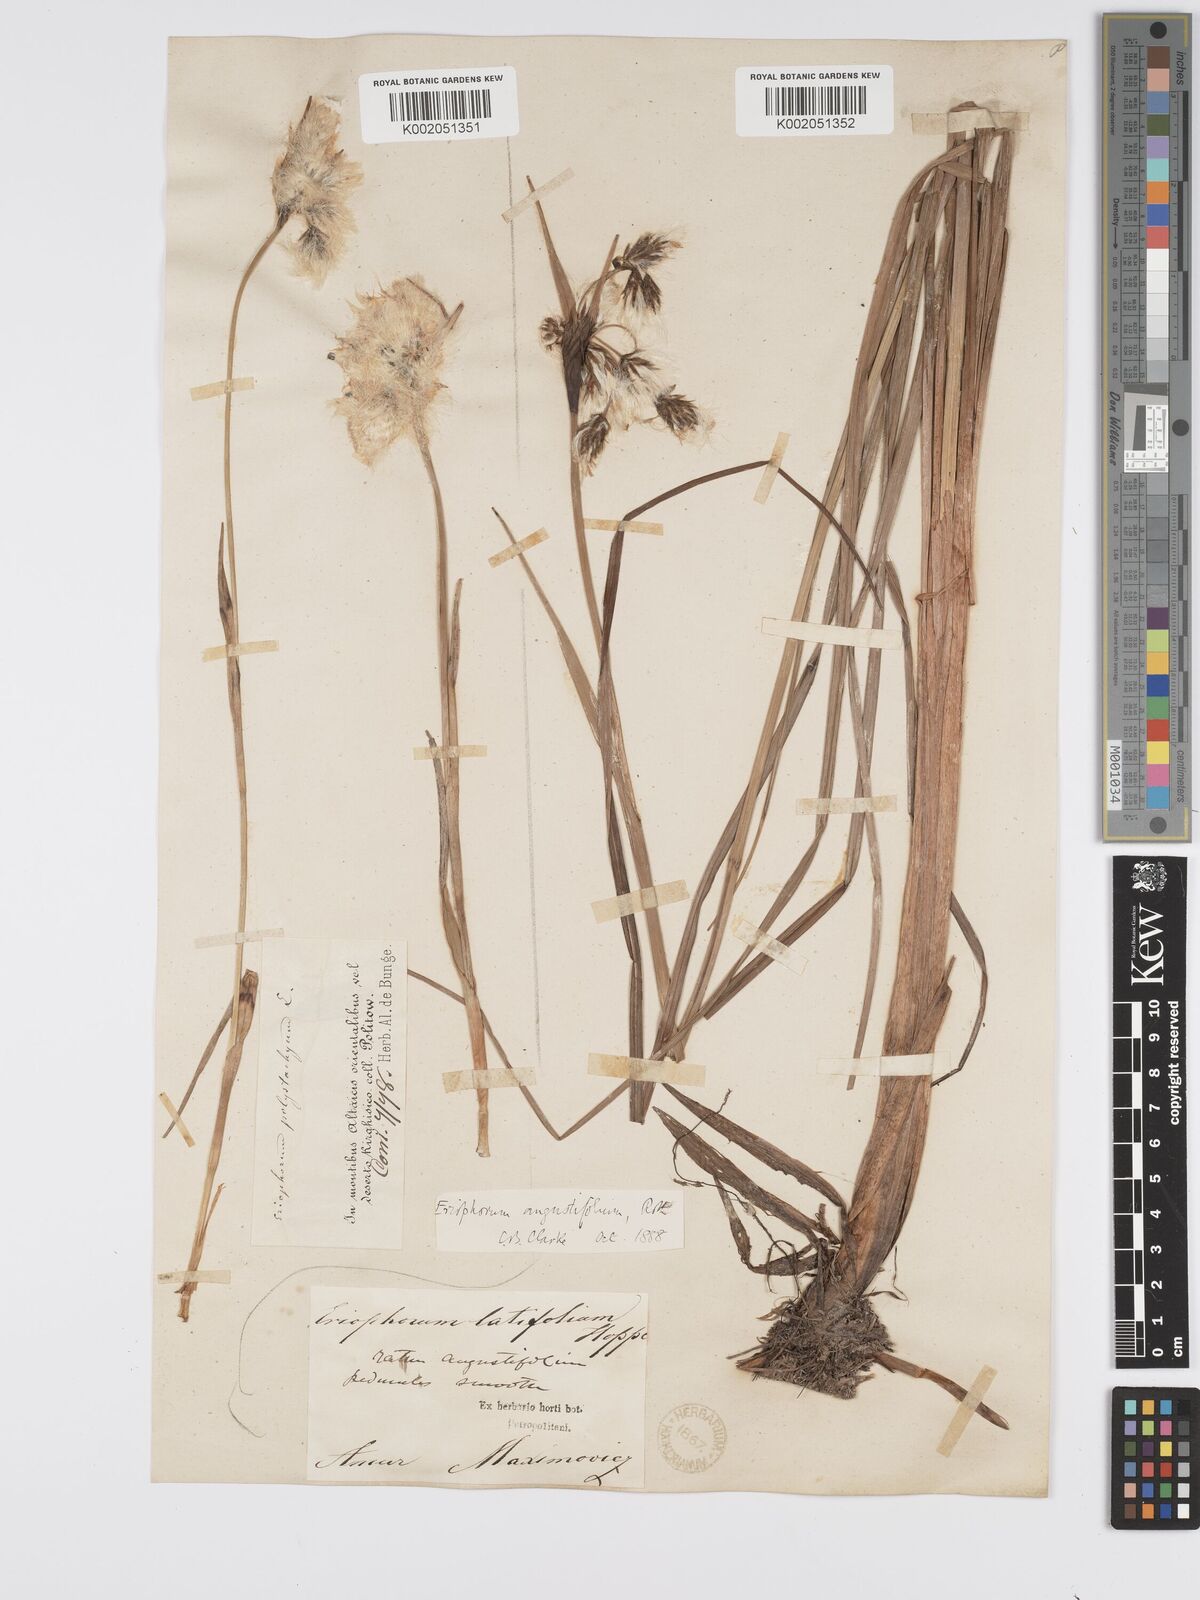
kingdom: Plantae
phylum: Tracheophyta
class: Liliopsida
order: Poales
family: Cyperaceae
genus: Eriophorum
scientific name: Eriophorum angustifolium
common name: Common cottongrass
